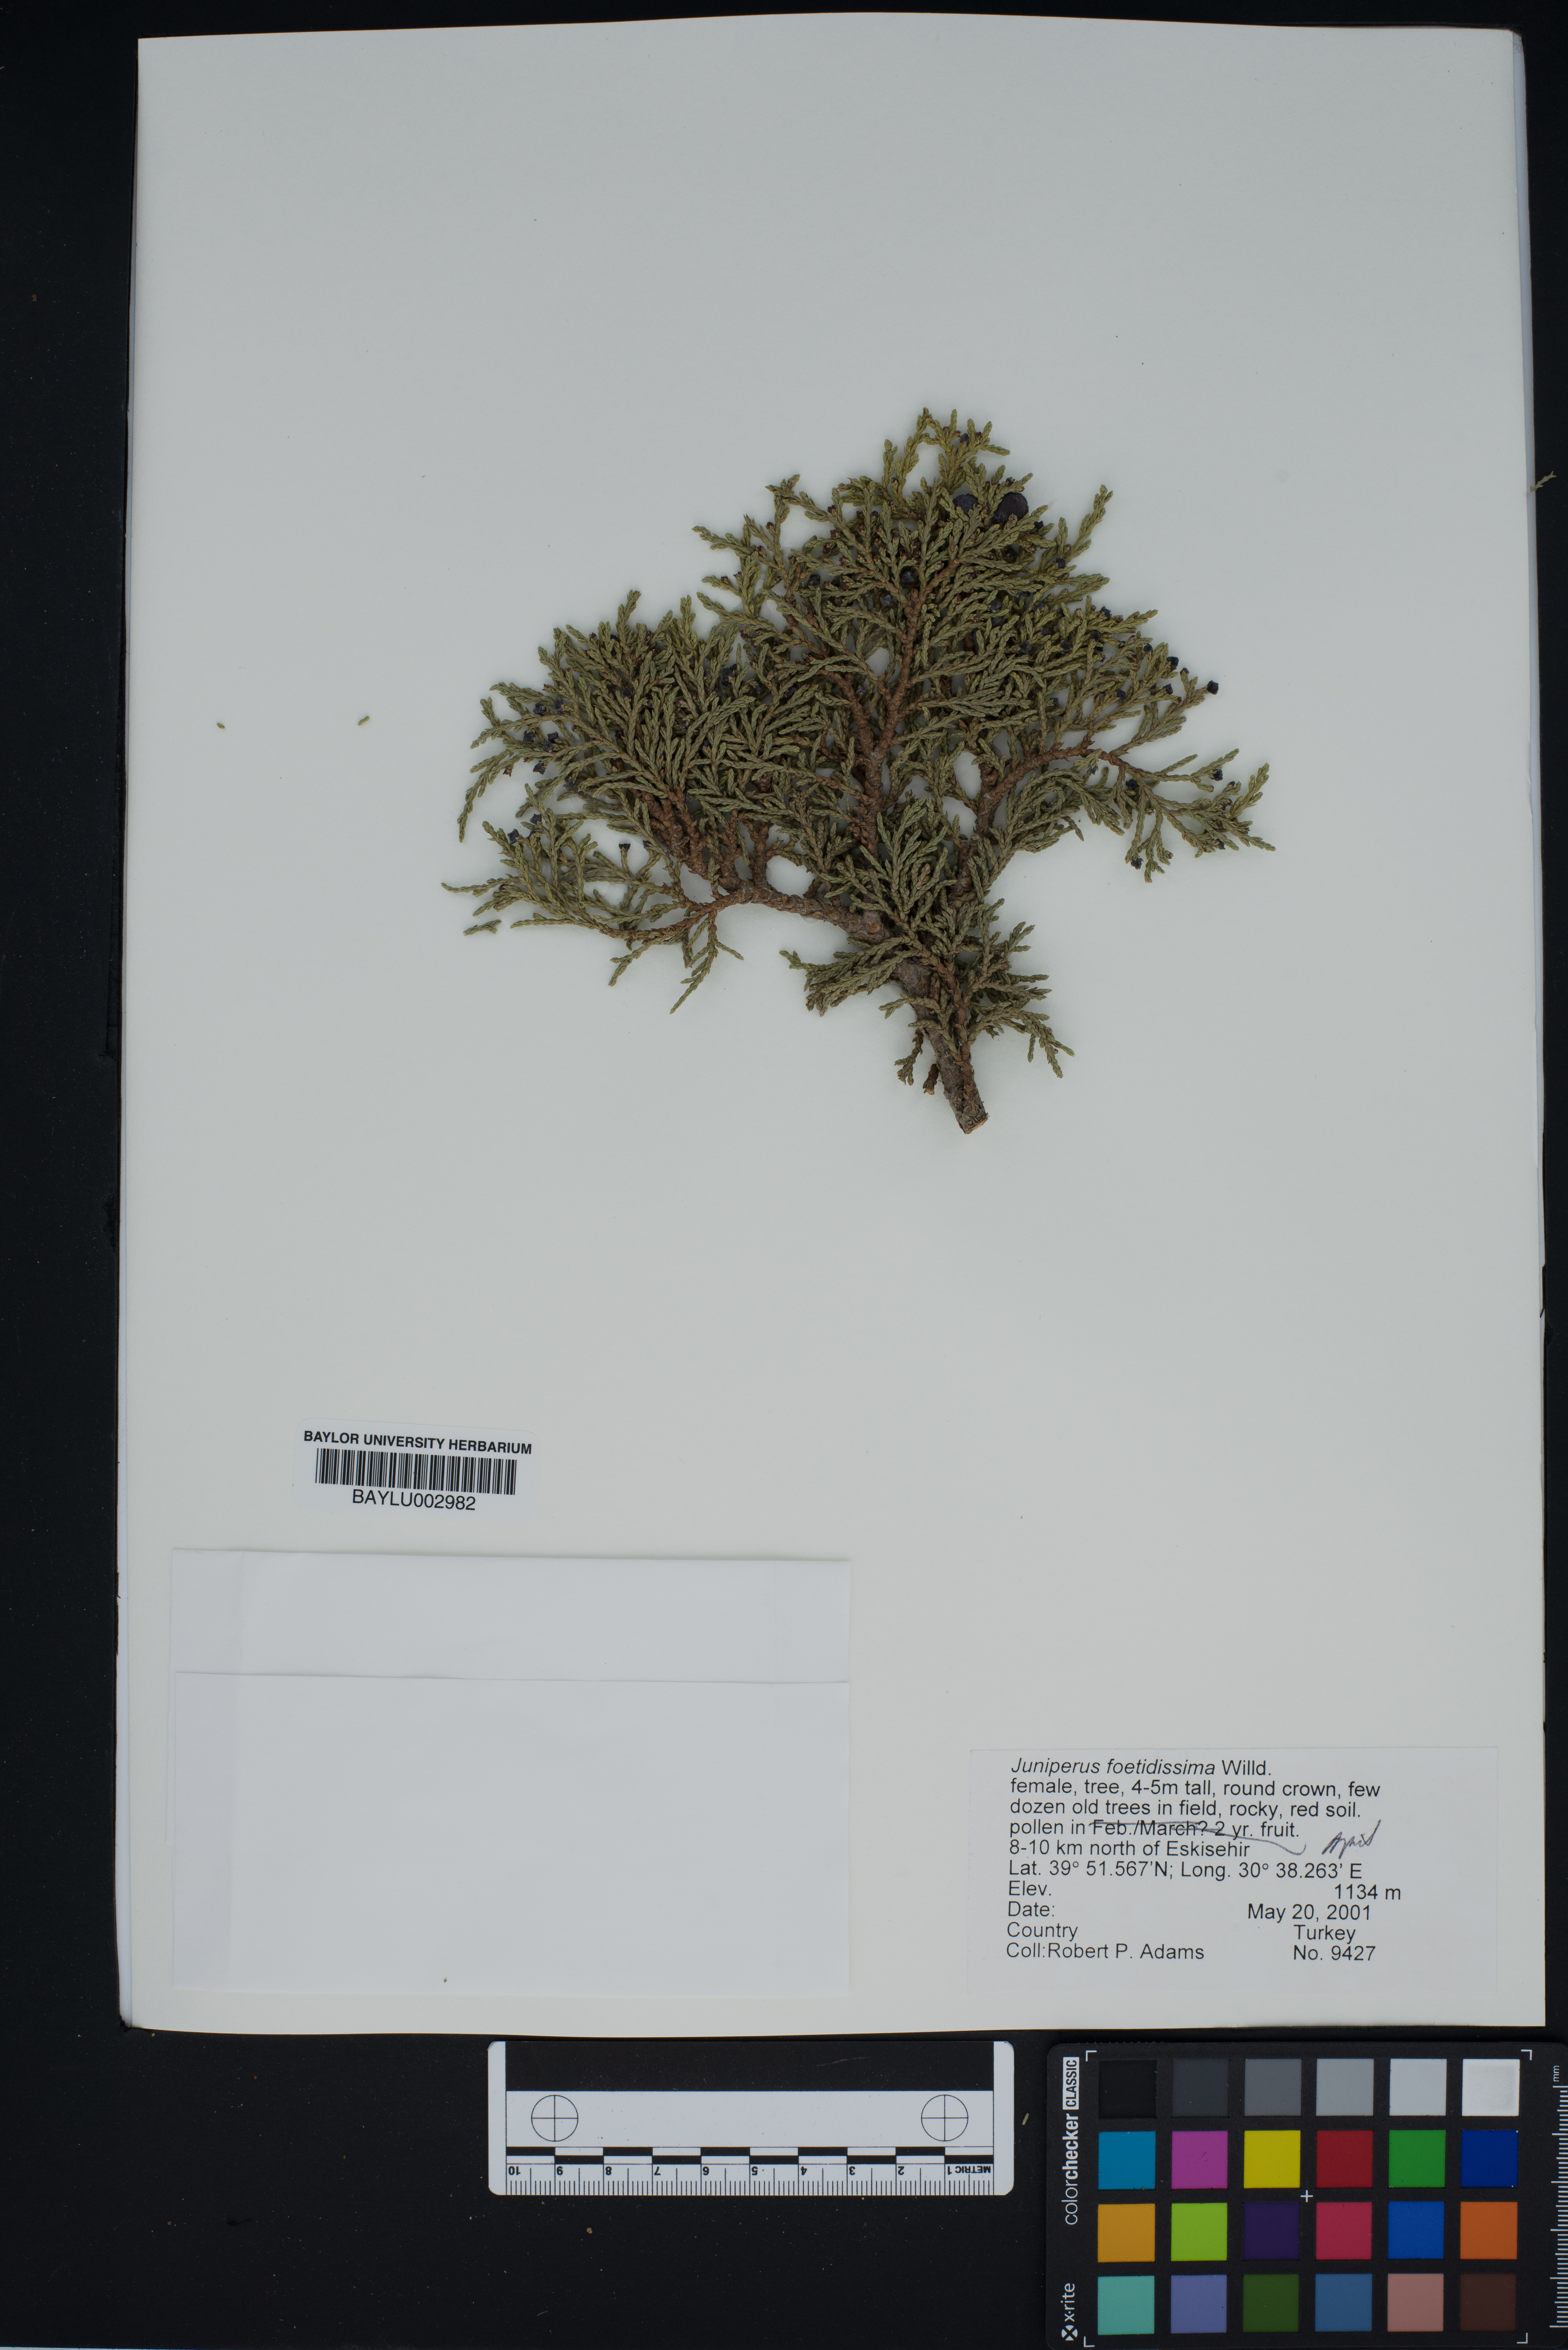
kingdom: Plantae
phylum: Tracheophyta
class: Pinopsida
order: Pinales
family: Cupressaceae
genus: Juniperus
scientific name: Juniperus foetidissima
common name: Stinking juniper
